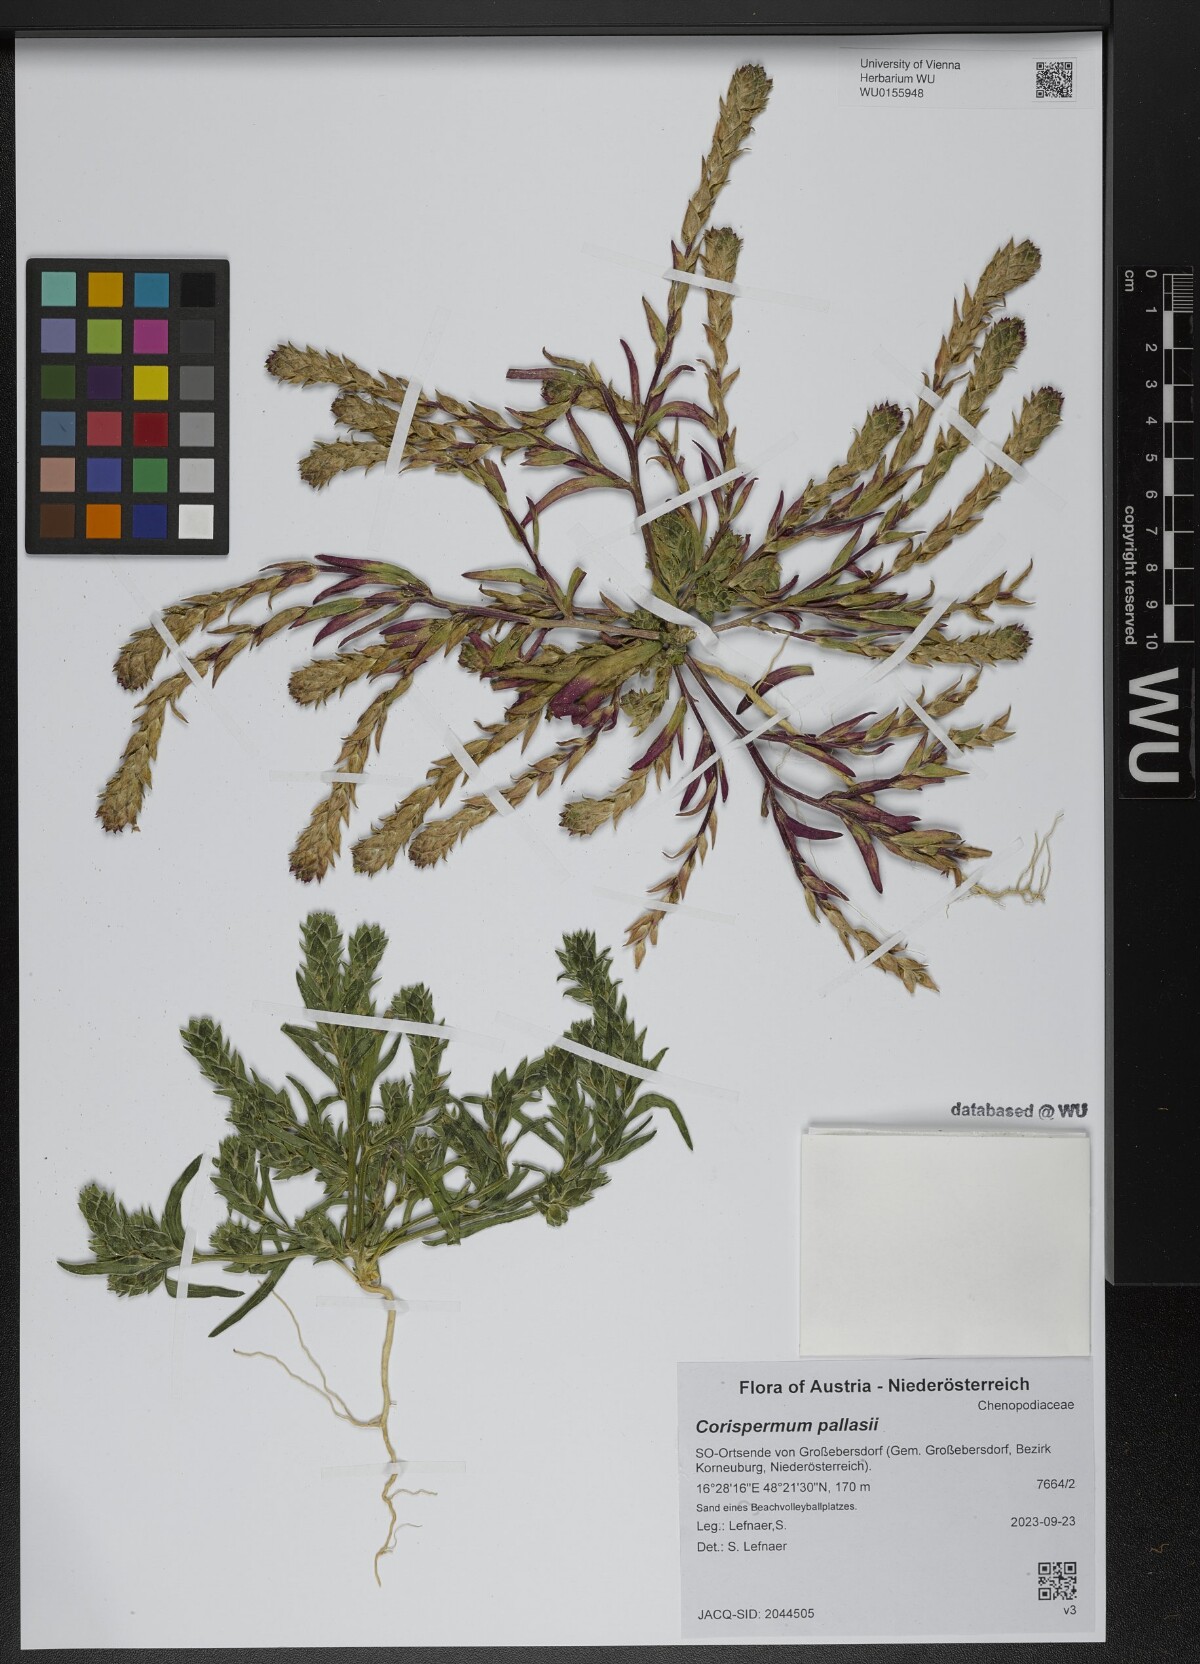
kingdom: Plantae
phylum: Tracheophyta
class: Magnoliopsida
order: Caryophyllales
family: Amaranthaceae
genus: Corispermum
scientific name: Corispermum pallasii
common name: Siberian bugseed
